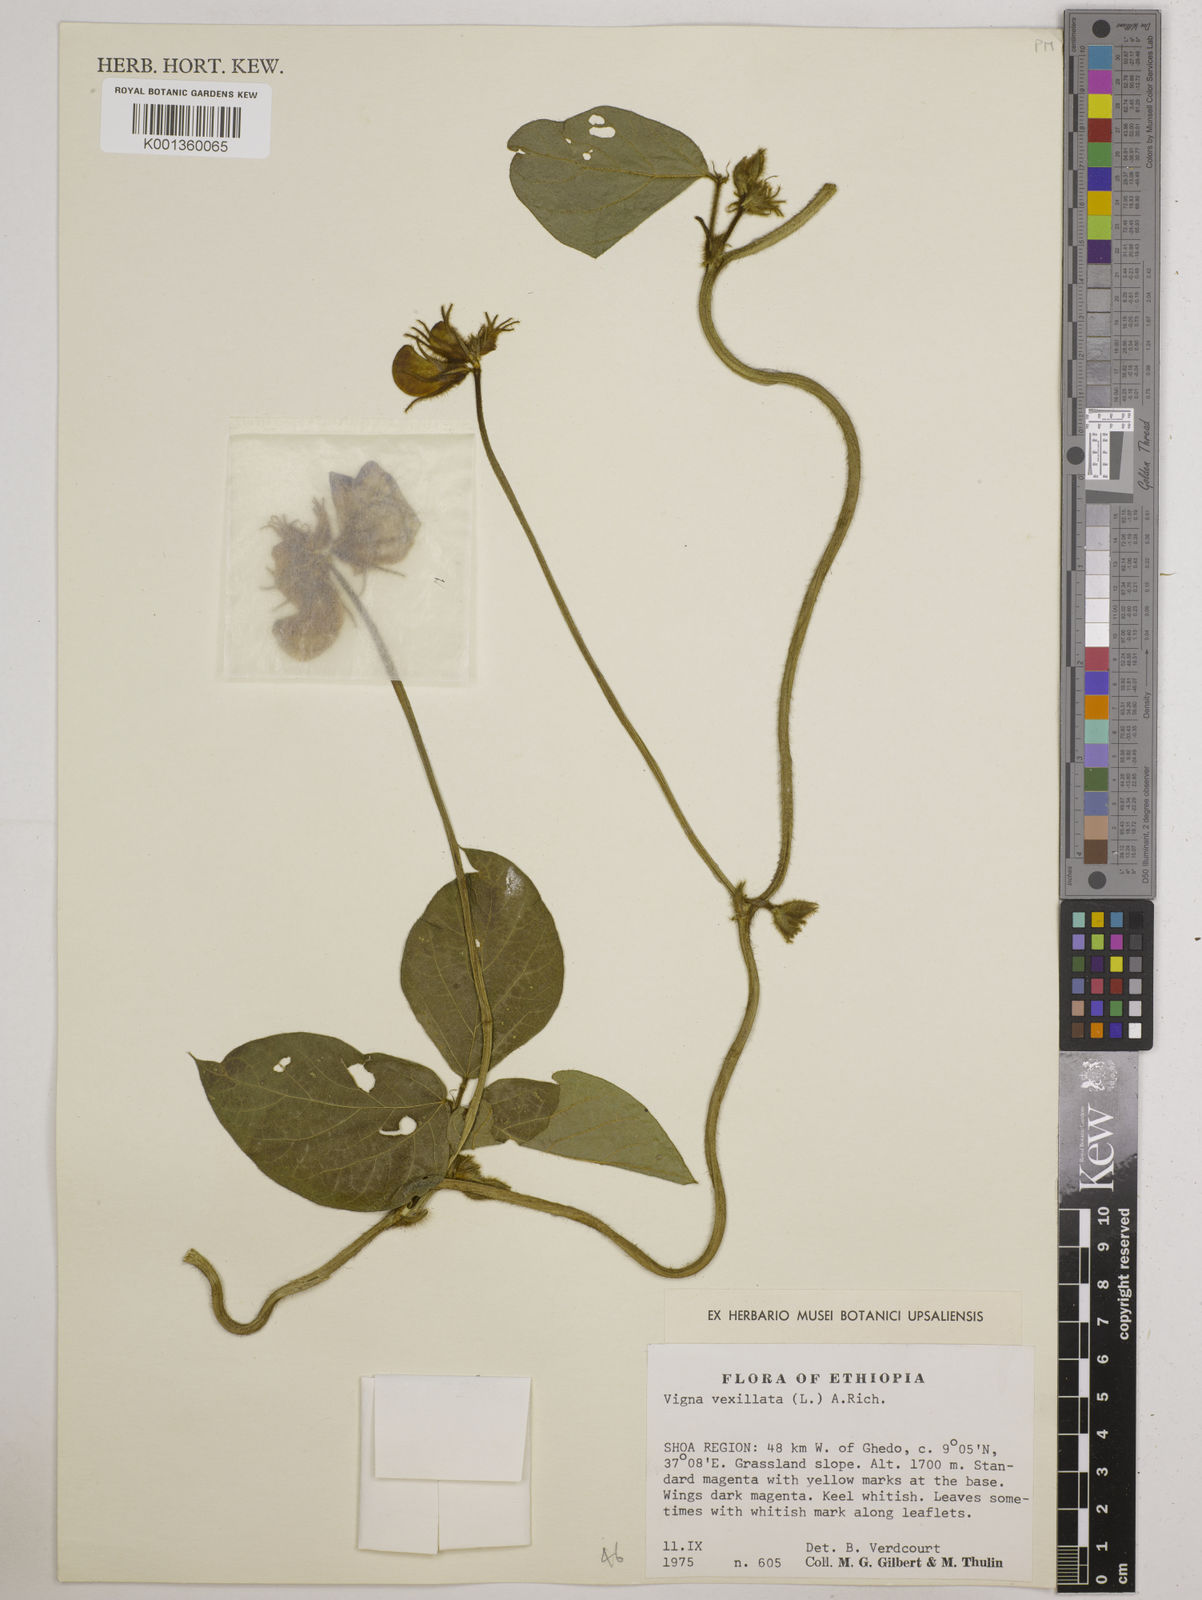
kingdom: Plantae
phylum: Tracheophyta
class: Magnoliopsida
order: Fabales
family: Fabaceae
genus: Vigna
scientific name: Vigna vexillata
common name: Zombi pea
